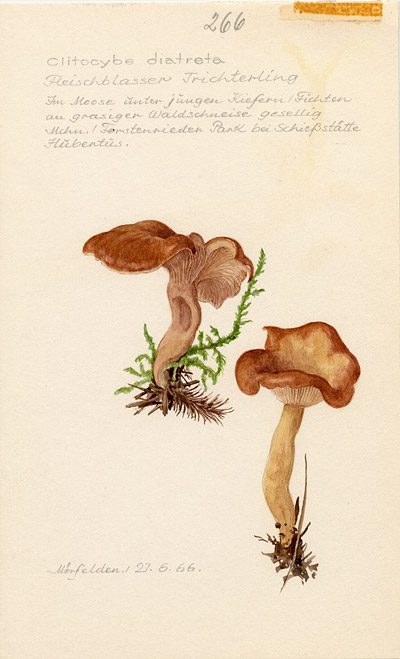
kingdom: Fungi
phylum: Basidiomycota
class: Agaricomycetes
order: Agaricales
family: Tricholomataceae
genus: Clitocybe
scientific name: Clitocybe diatreta
